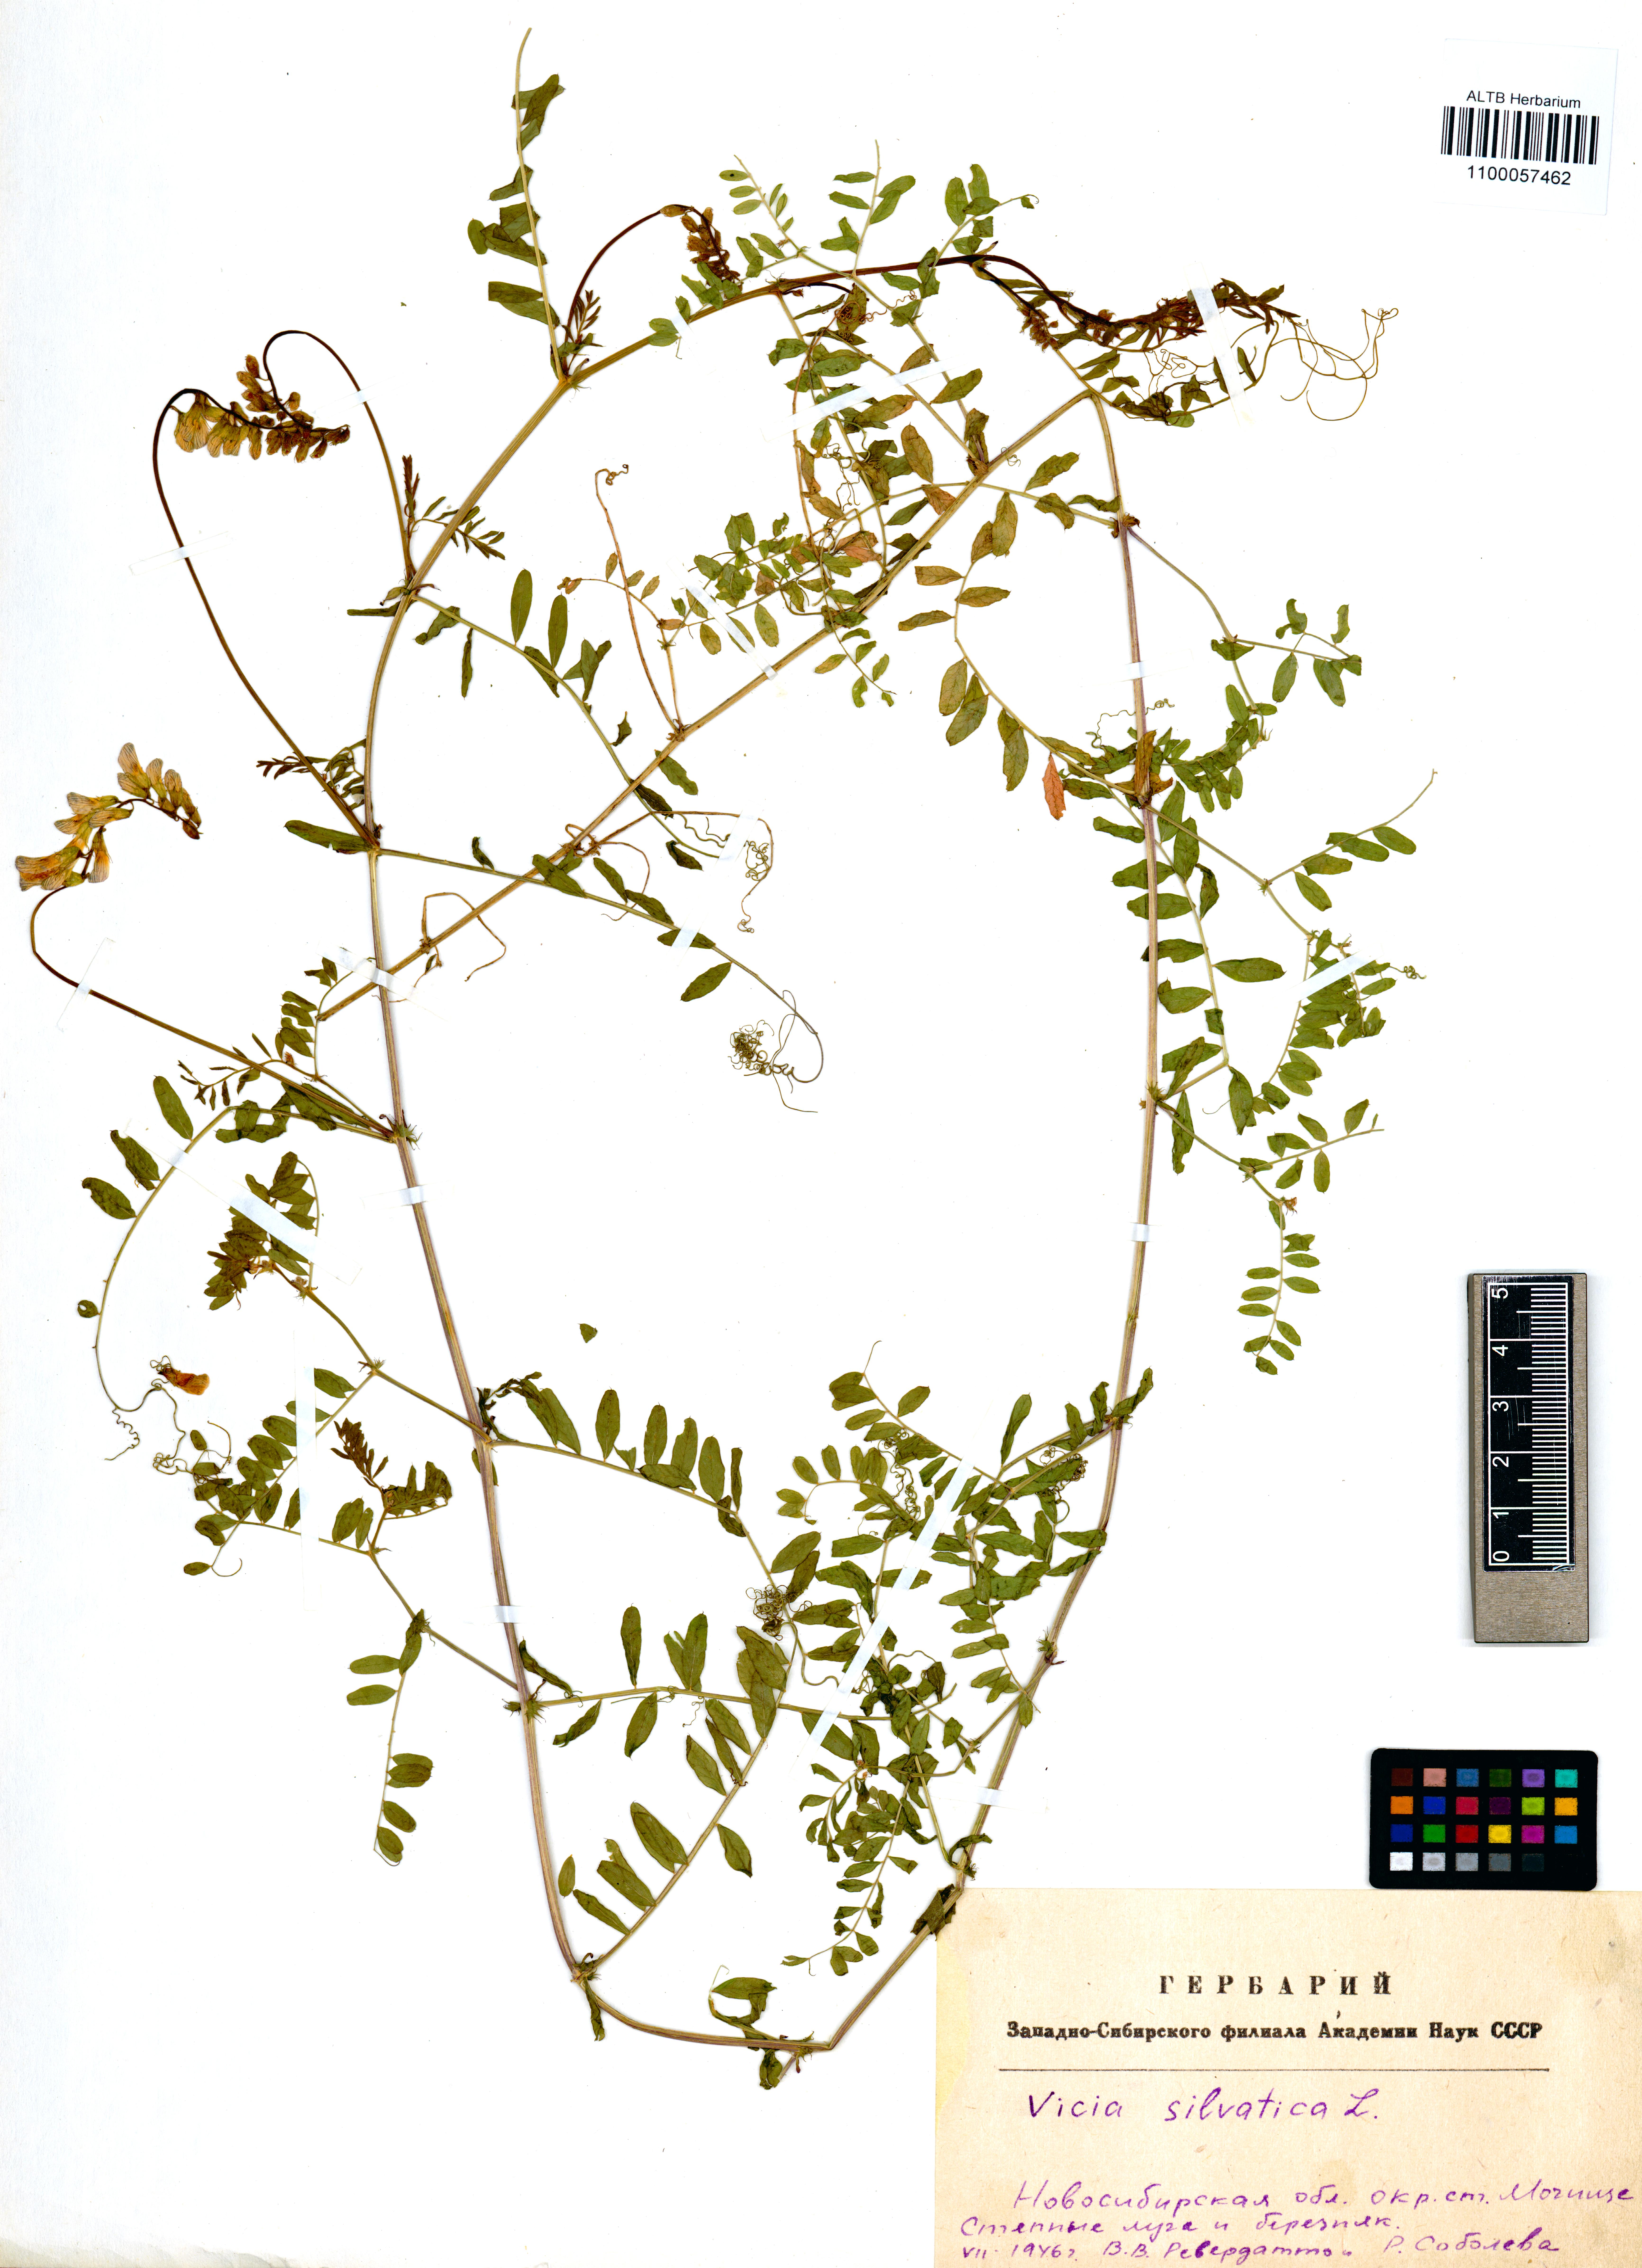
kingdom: Plantae
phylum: Tracheophyta
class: Magnoliopsida
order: Fabales
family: Fabaceae
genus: Vicia
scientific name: Vicia sylvatica
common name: Wood vetch
